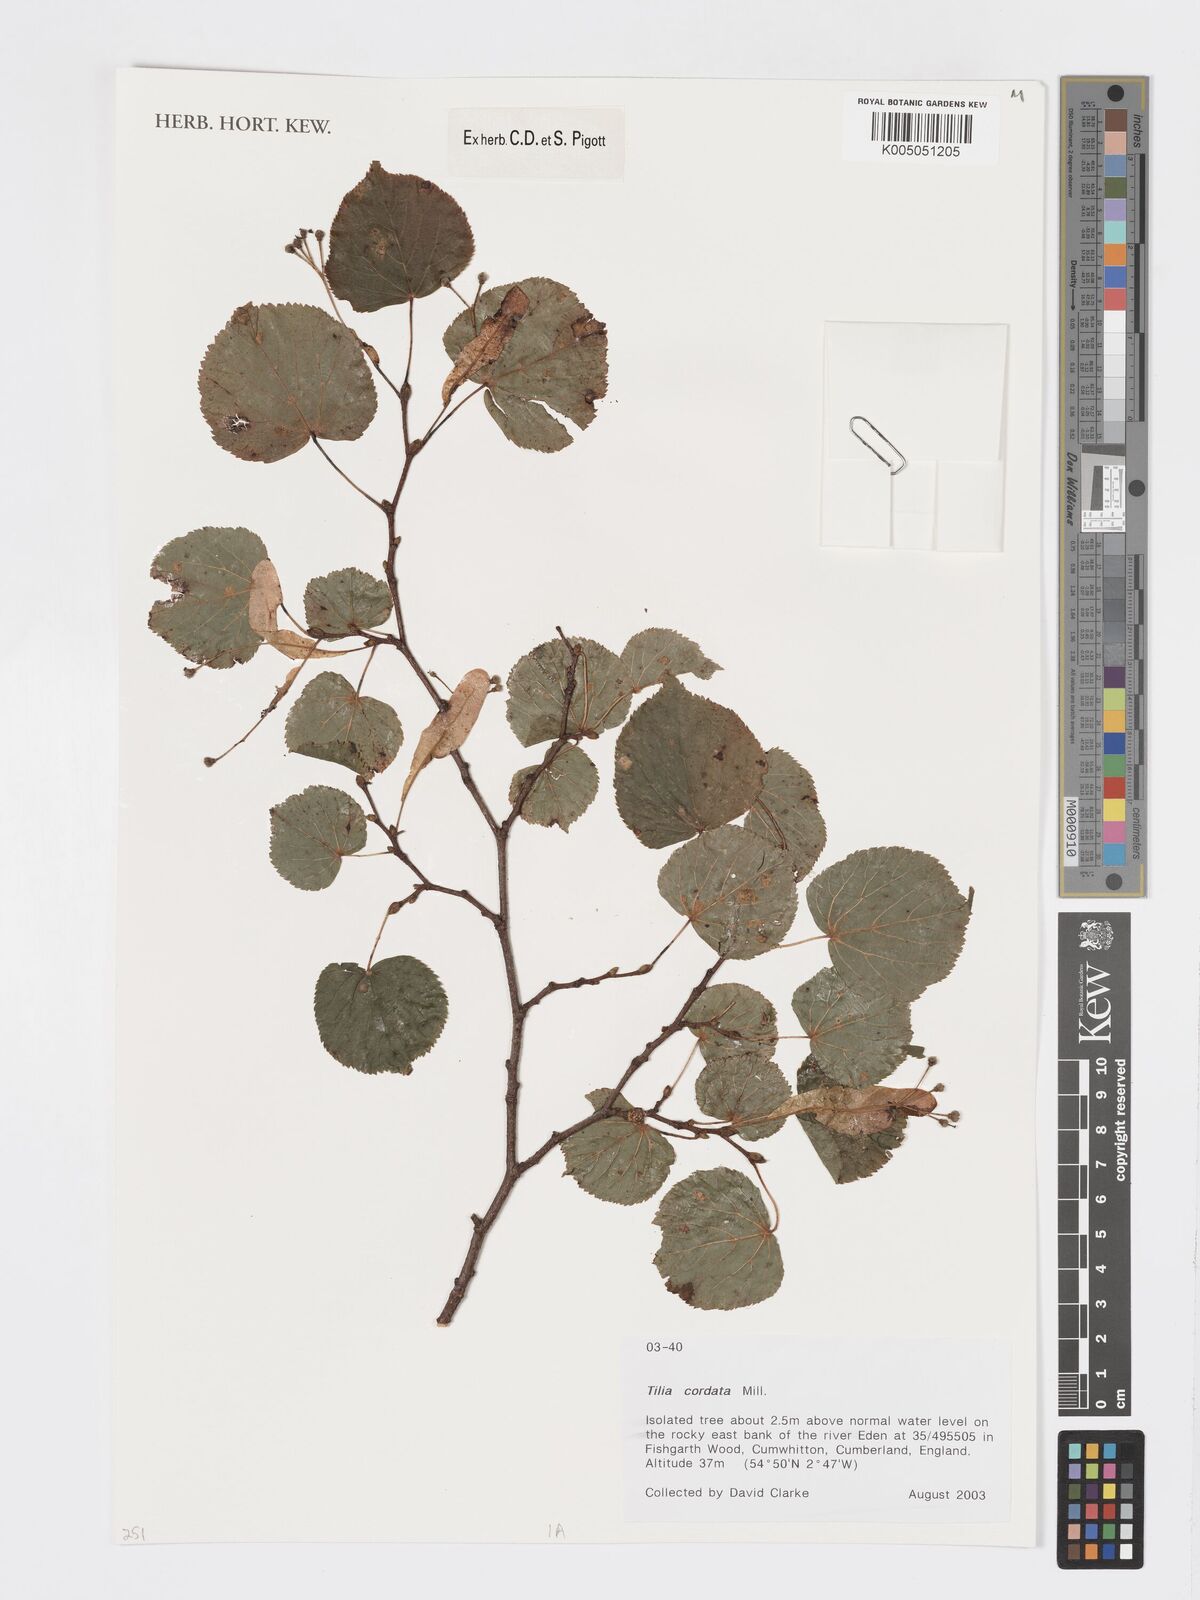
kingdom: Plantae
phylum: Tracheophyta
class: Magnoliopsida
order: Malvales
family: Malvaceae
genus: Tilia
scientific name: Tilia cordata
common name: Small-leaved lime
